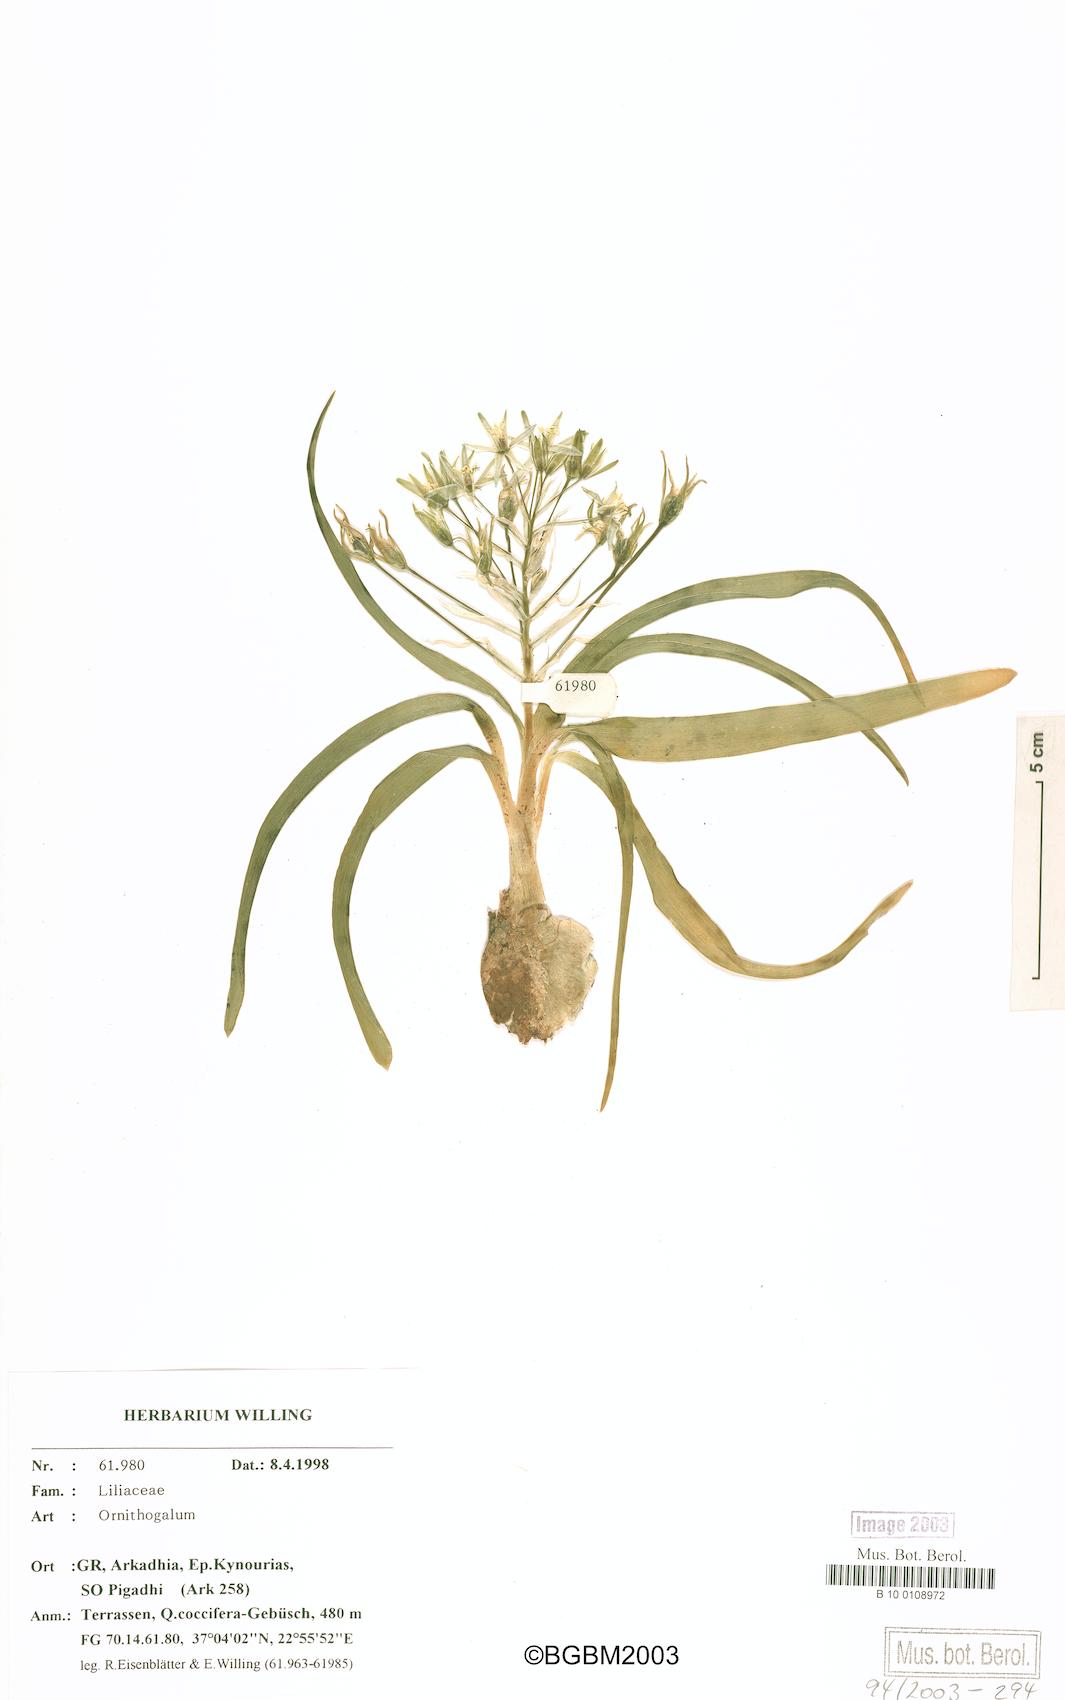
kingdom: Plantae
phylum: Tracheophyta
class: Liliopsida
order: Asparagales
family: Asparagaceae
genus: Ornithogalum
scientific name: Ornithogalum
